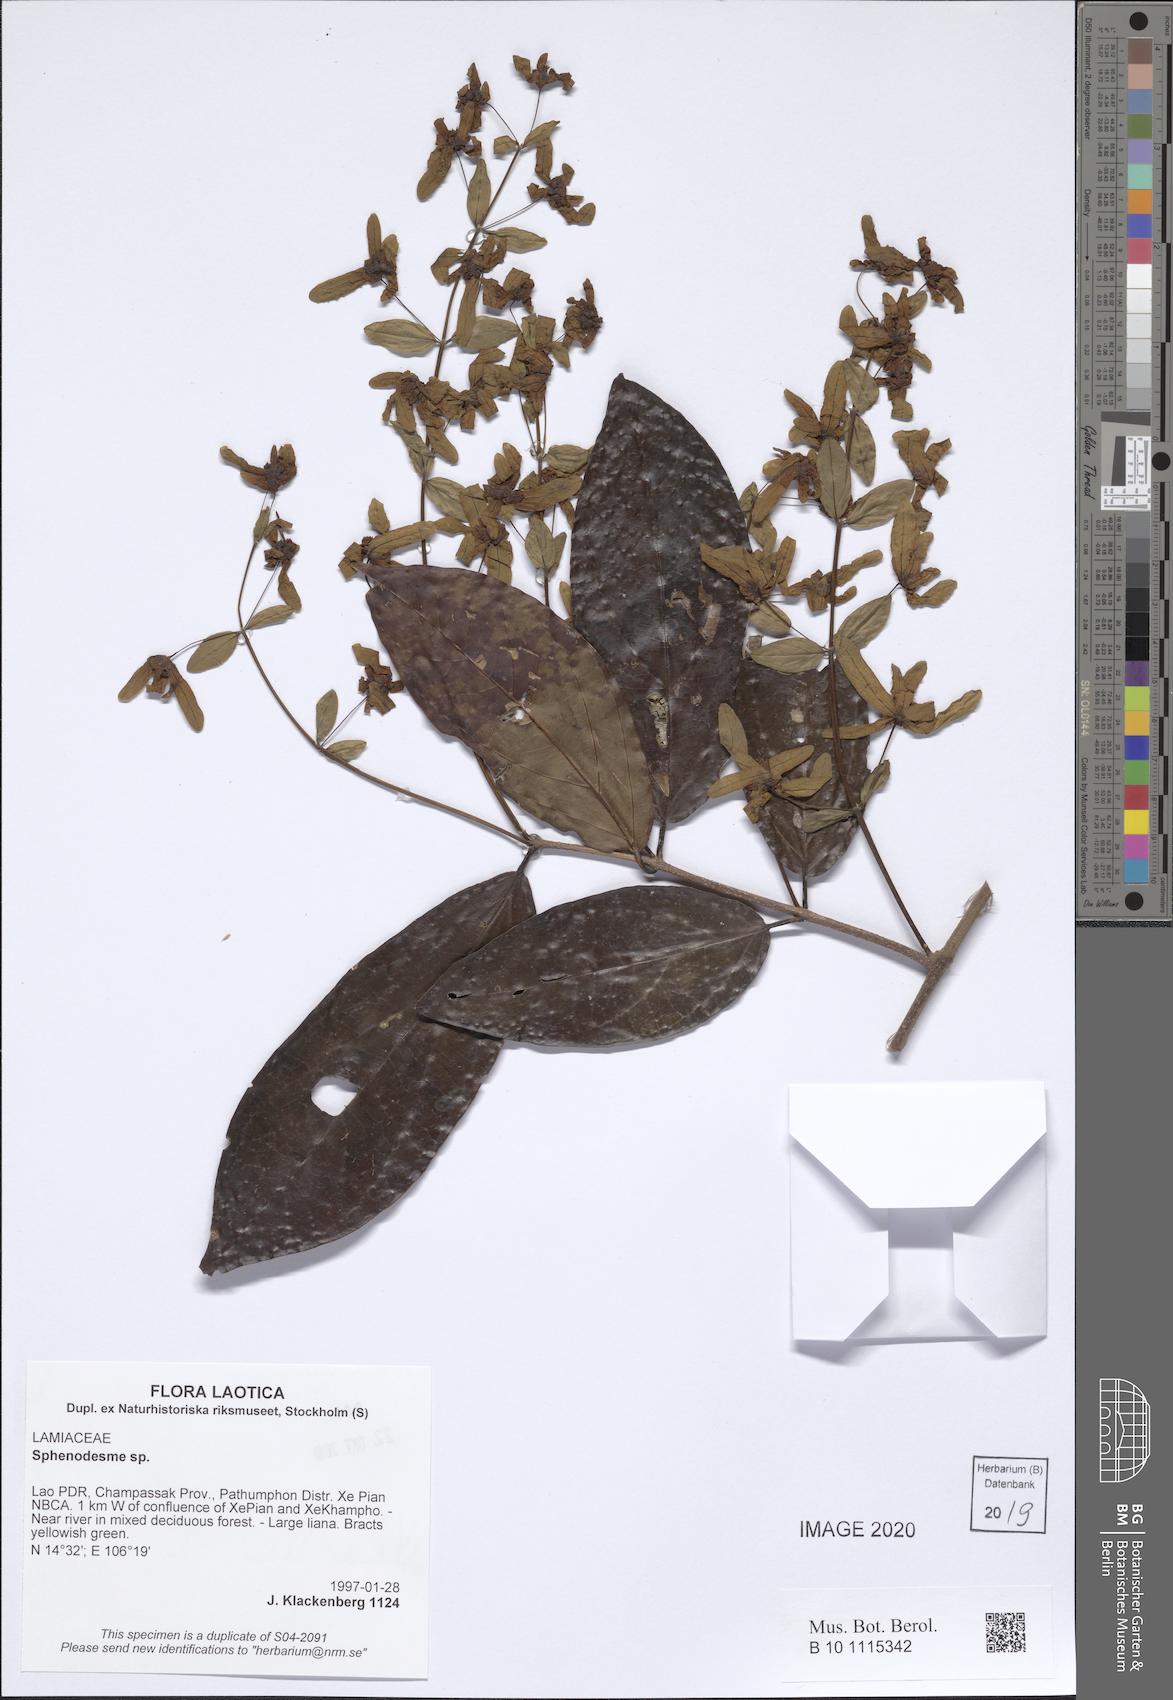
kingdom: Plantae
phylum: Tracheophyta
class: Magnoliopsida
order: Lamiales
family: Lamiaceae
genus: Sphenodesme
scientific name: Sphenodesme
